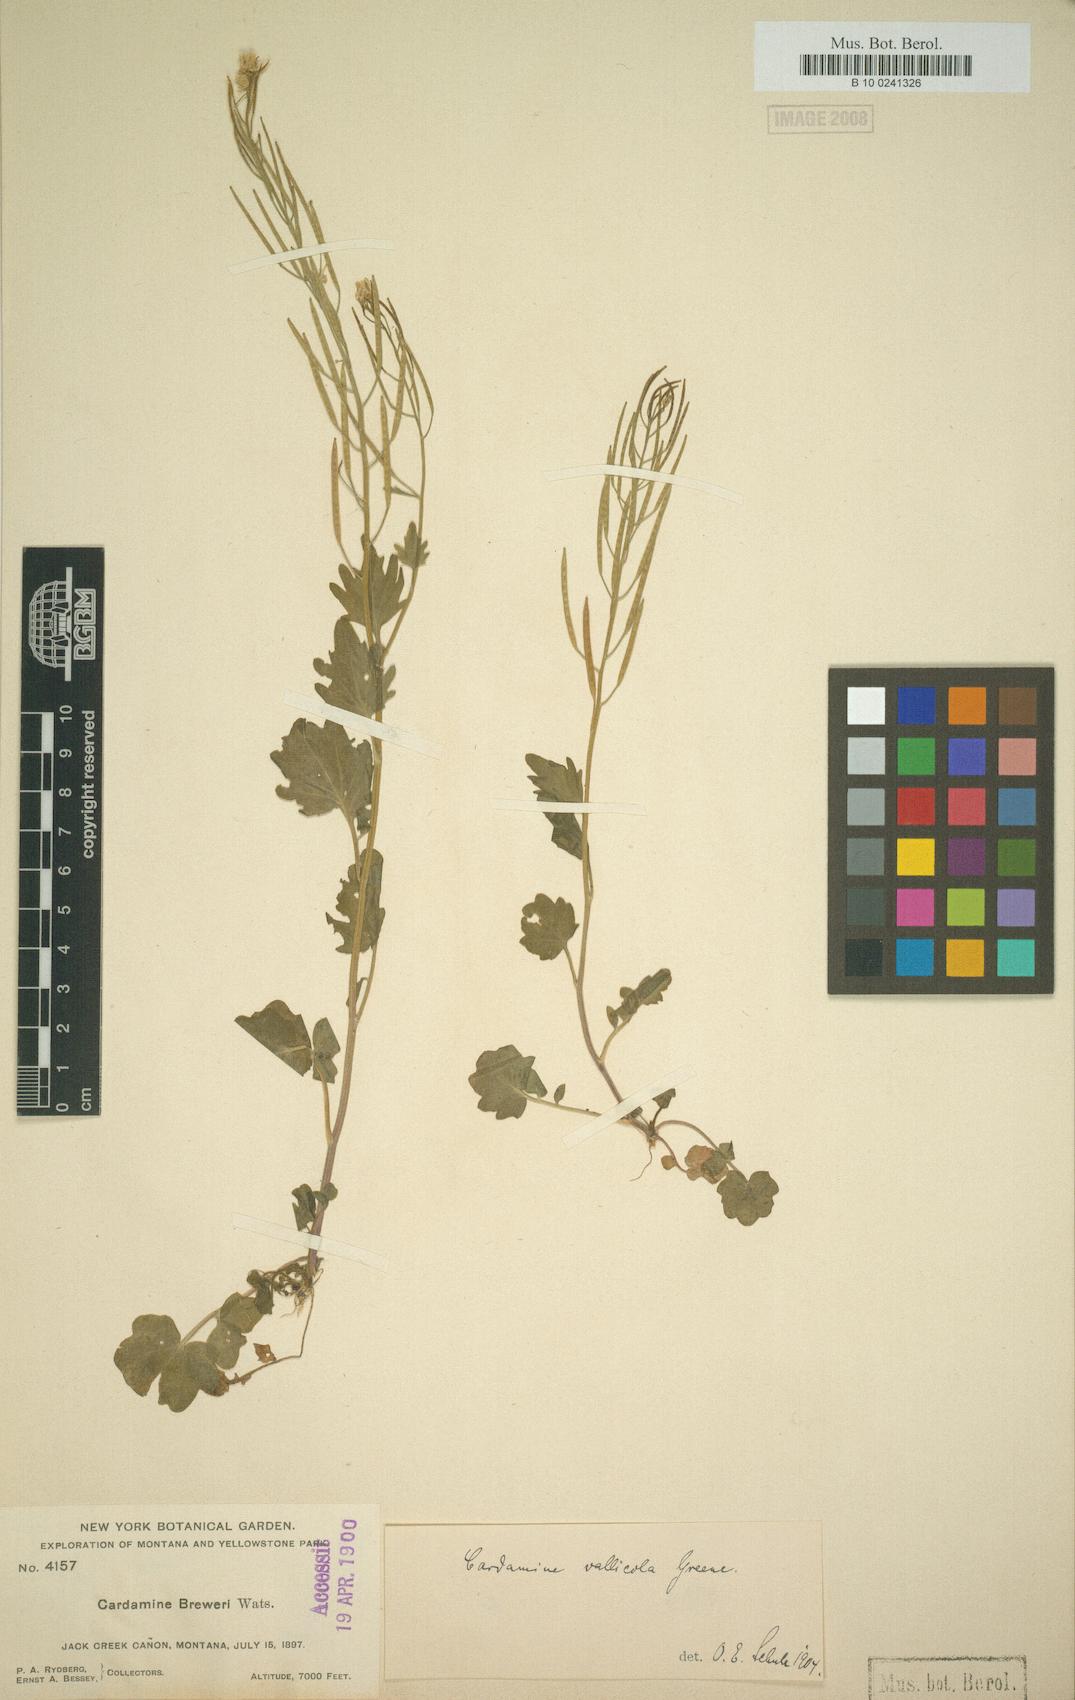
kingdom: Plantae
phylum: Tracheophyta
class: Magnoliopsida
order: Brassicales
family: Brassicaceae
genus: Cardamine
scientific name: Cardamine breweri
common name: Brewer's bittercress
